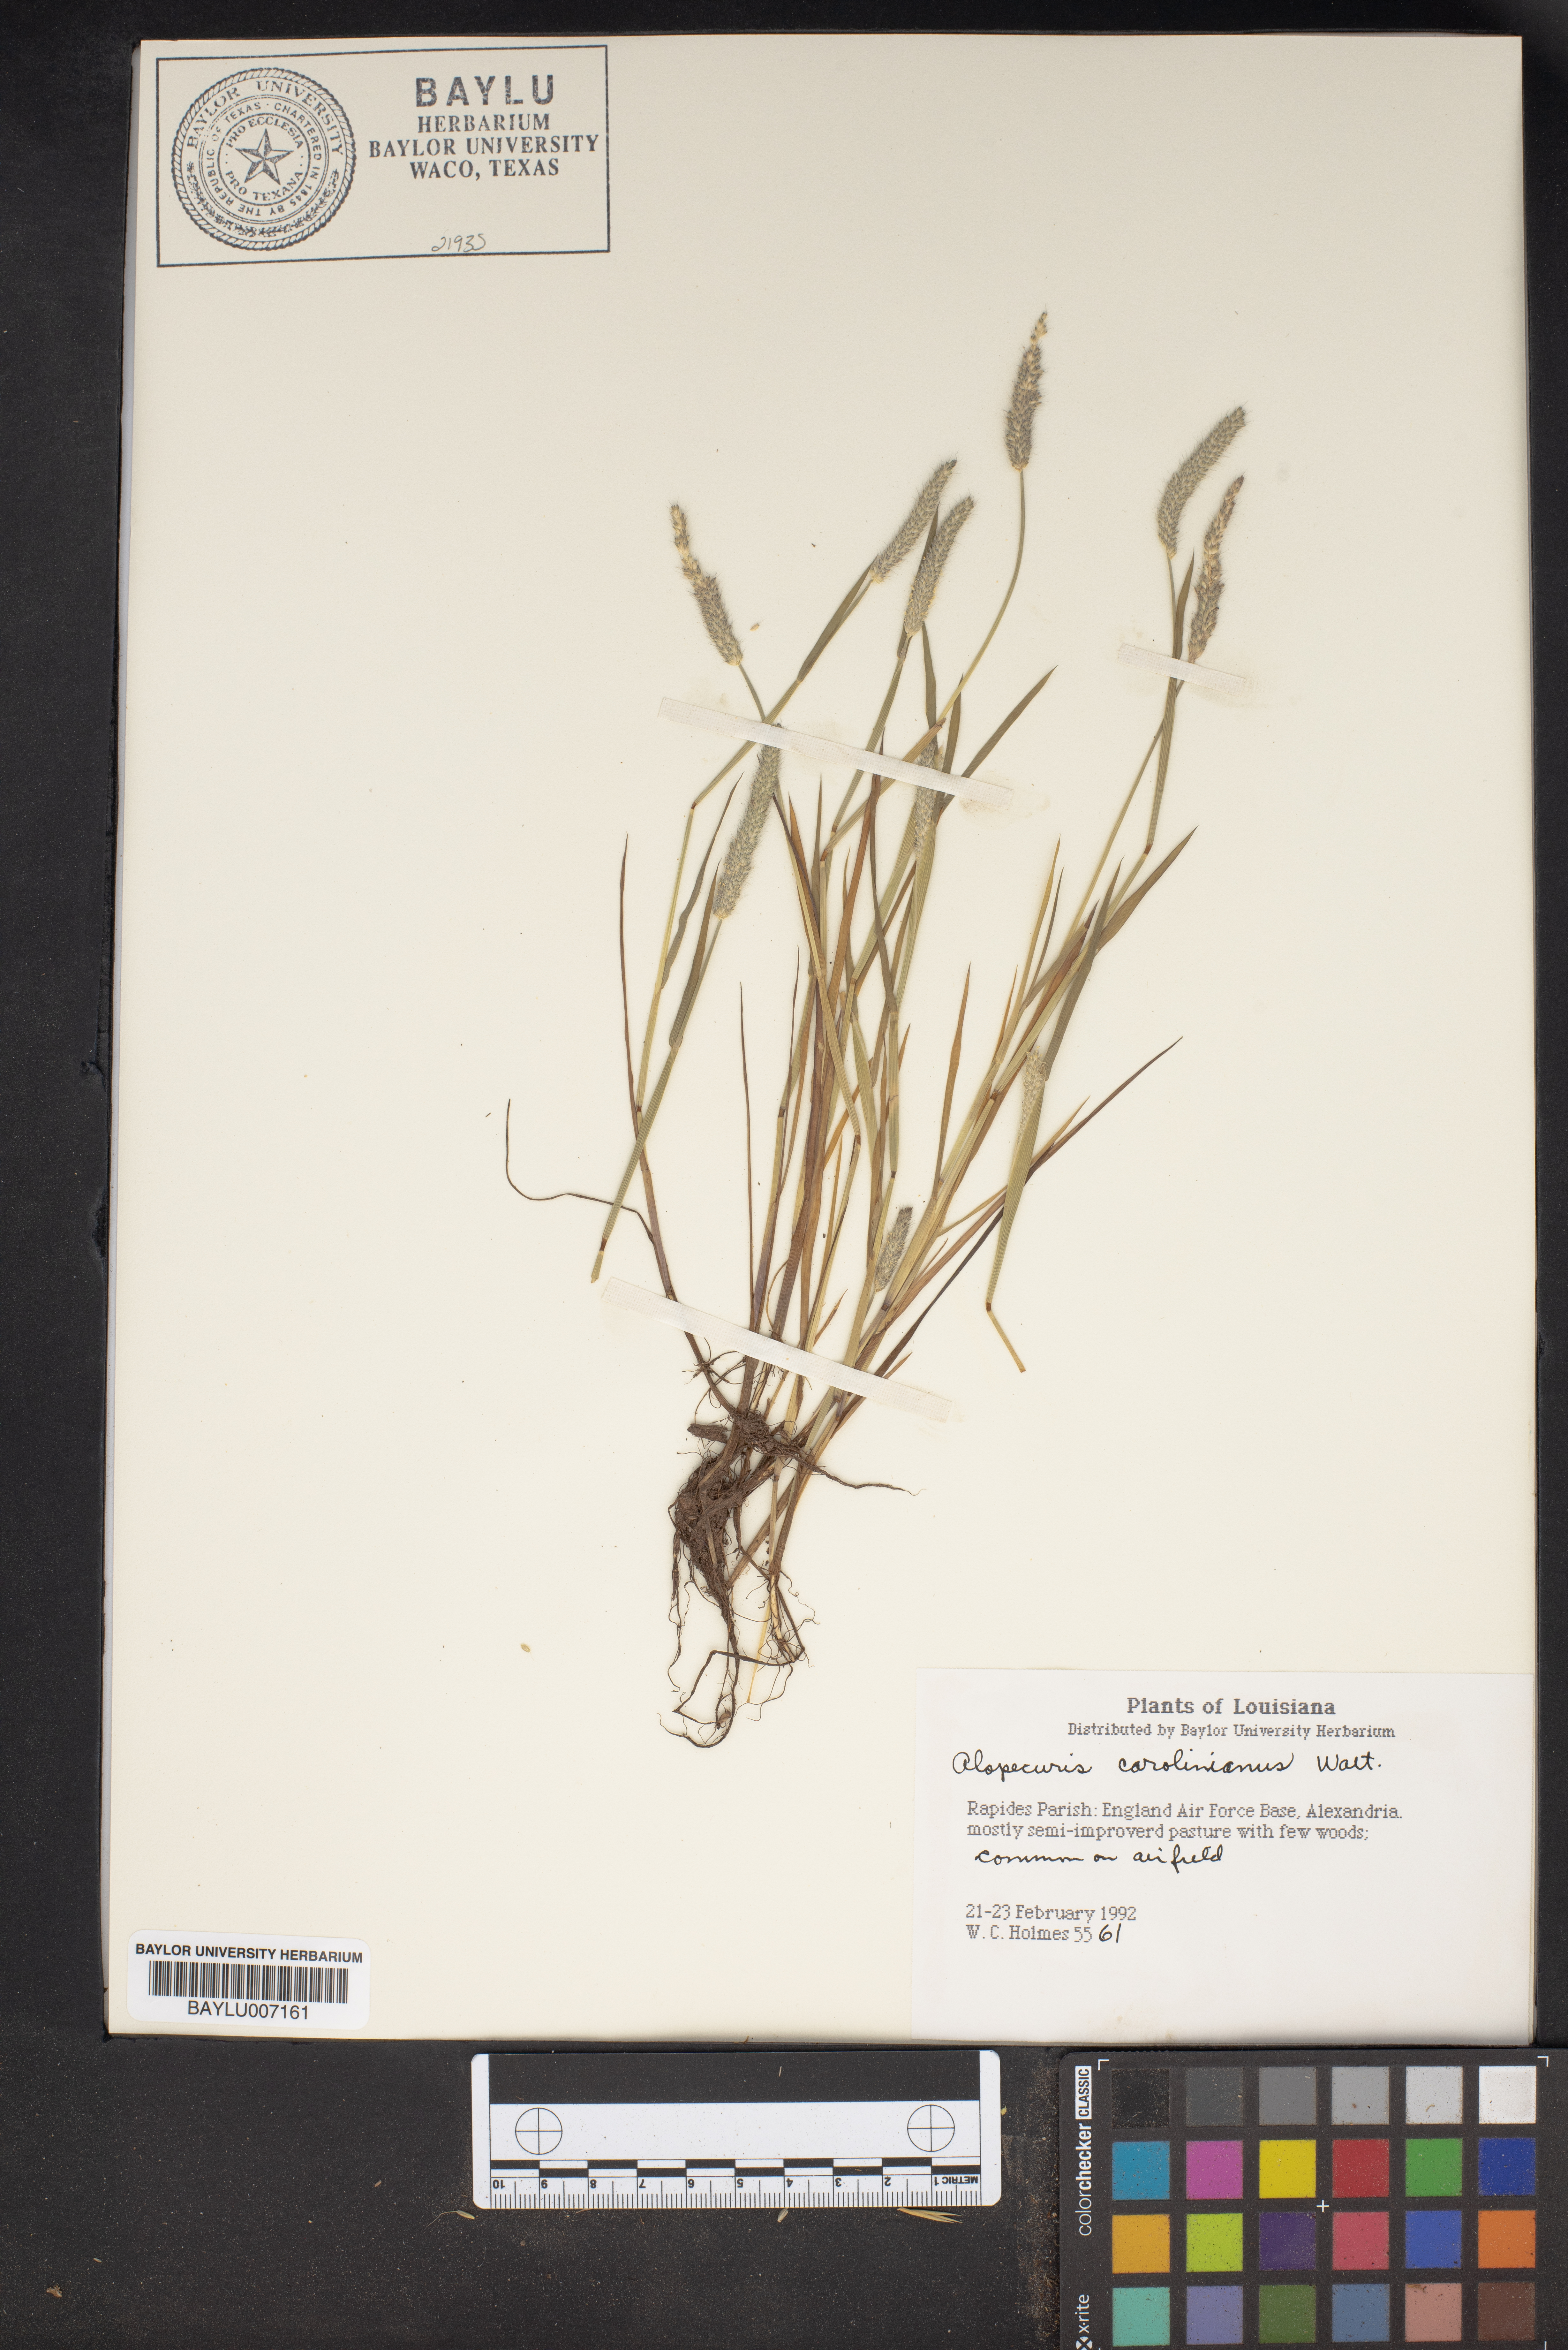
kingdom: Plantae
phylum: Tracheophyta
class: Liliopsida
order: Poales
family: Poaceae
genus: Alopecurus
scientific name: Alopecurus carolinianus
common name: Tufted foxtail
